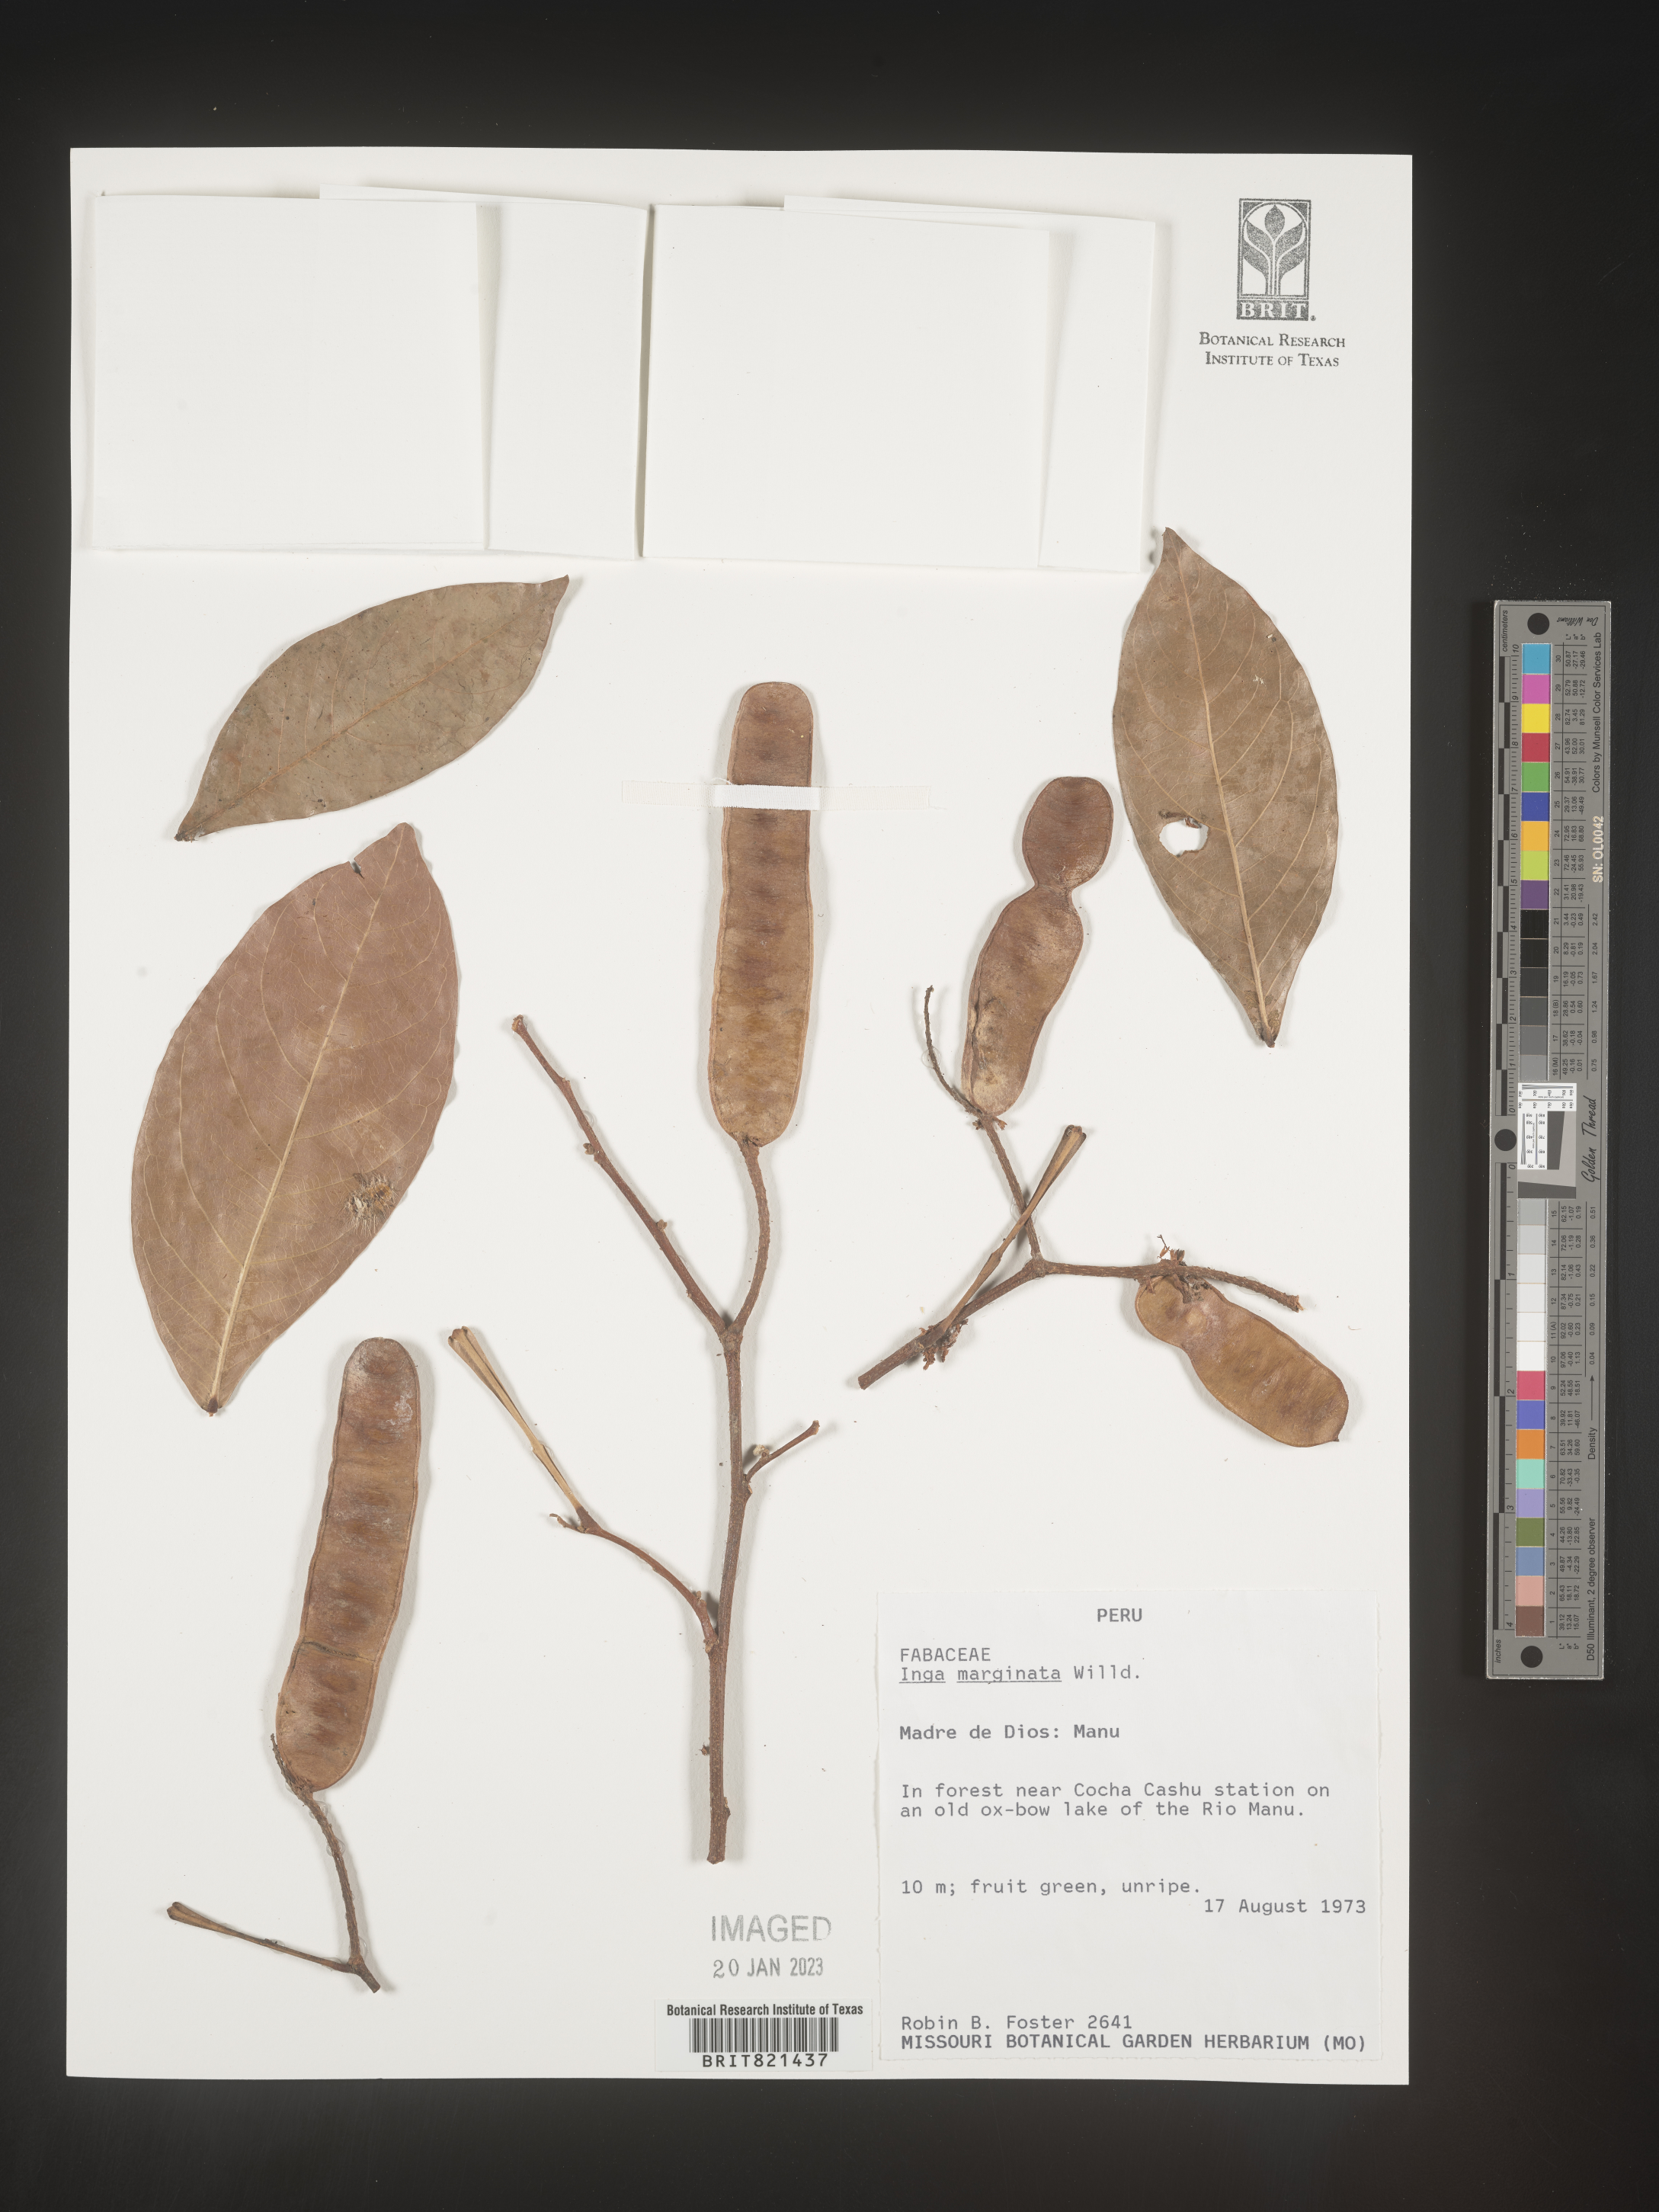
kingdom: Plantae
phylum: Tracheophyta
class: Magnoliopsida
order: Fabales
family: Fabaceae
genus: Inga
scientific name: Inga
